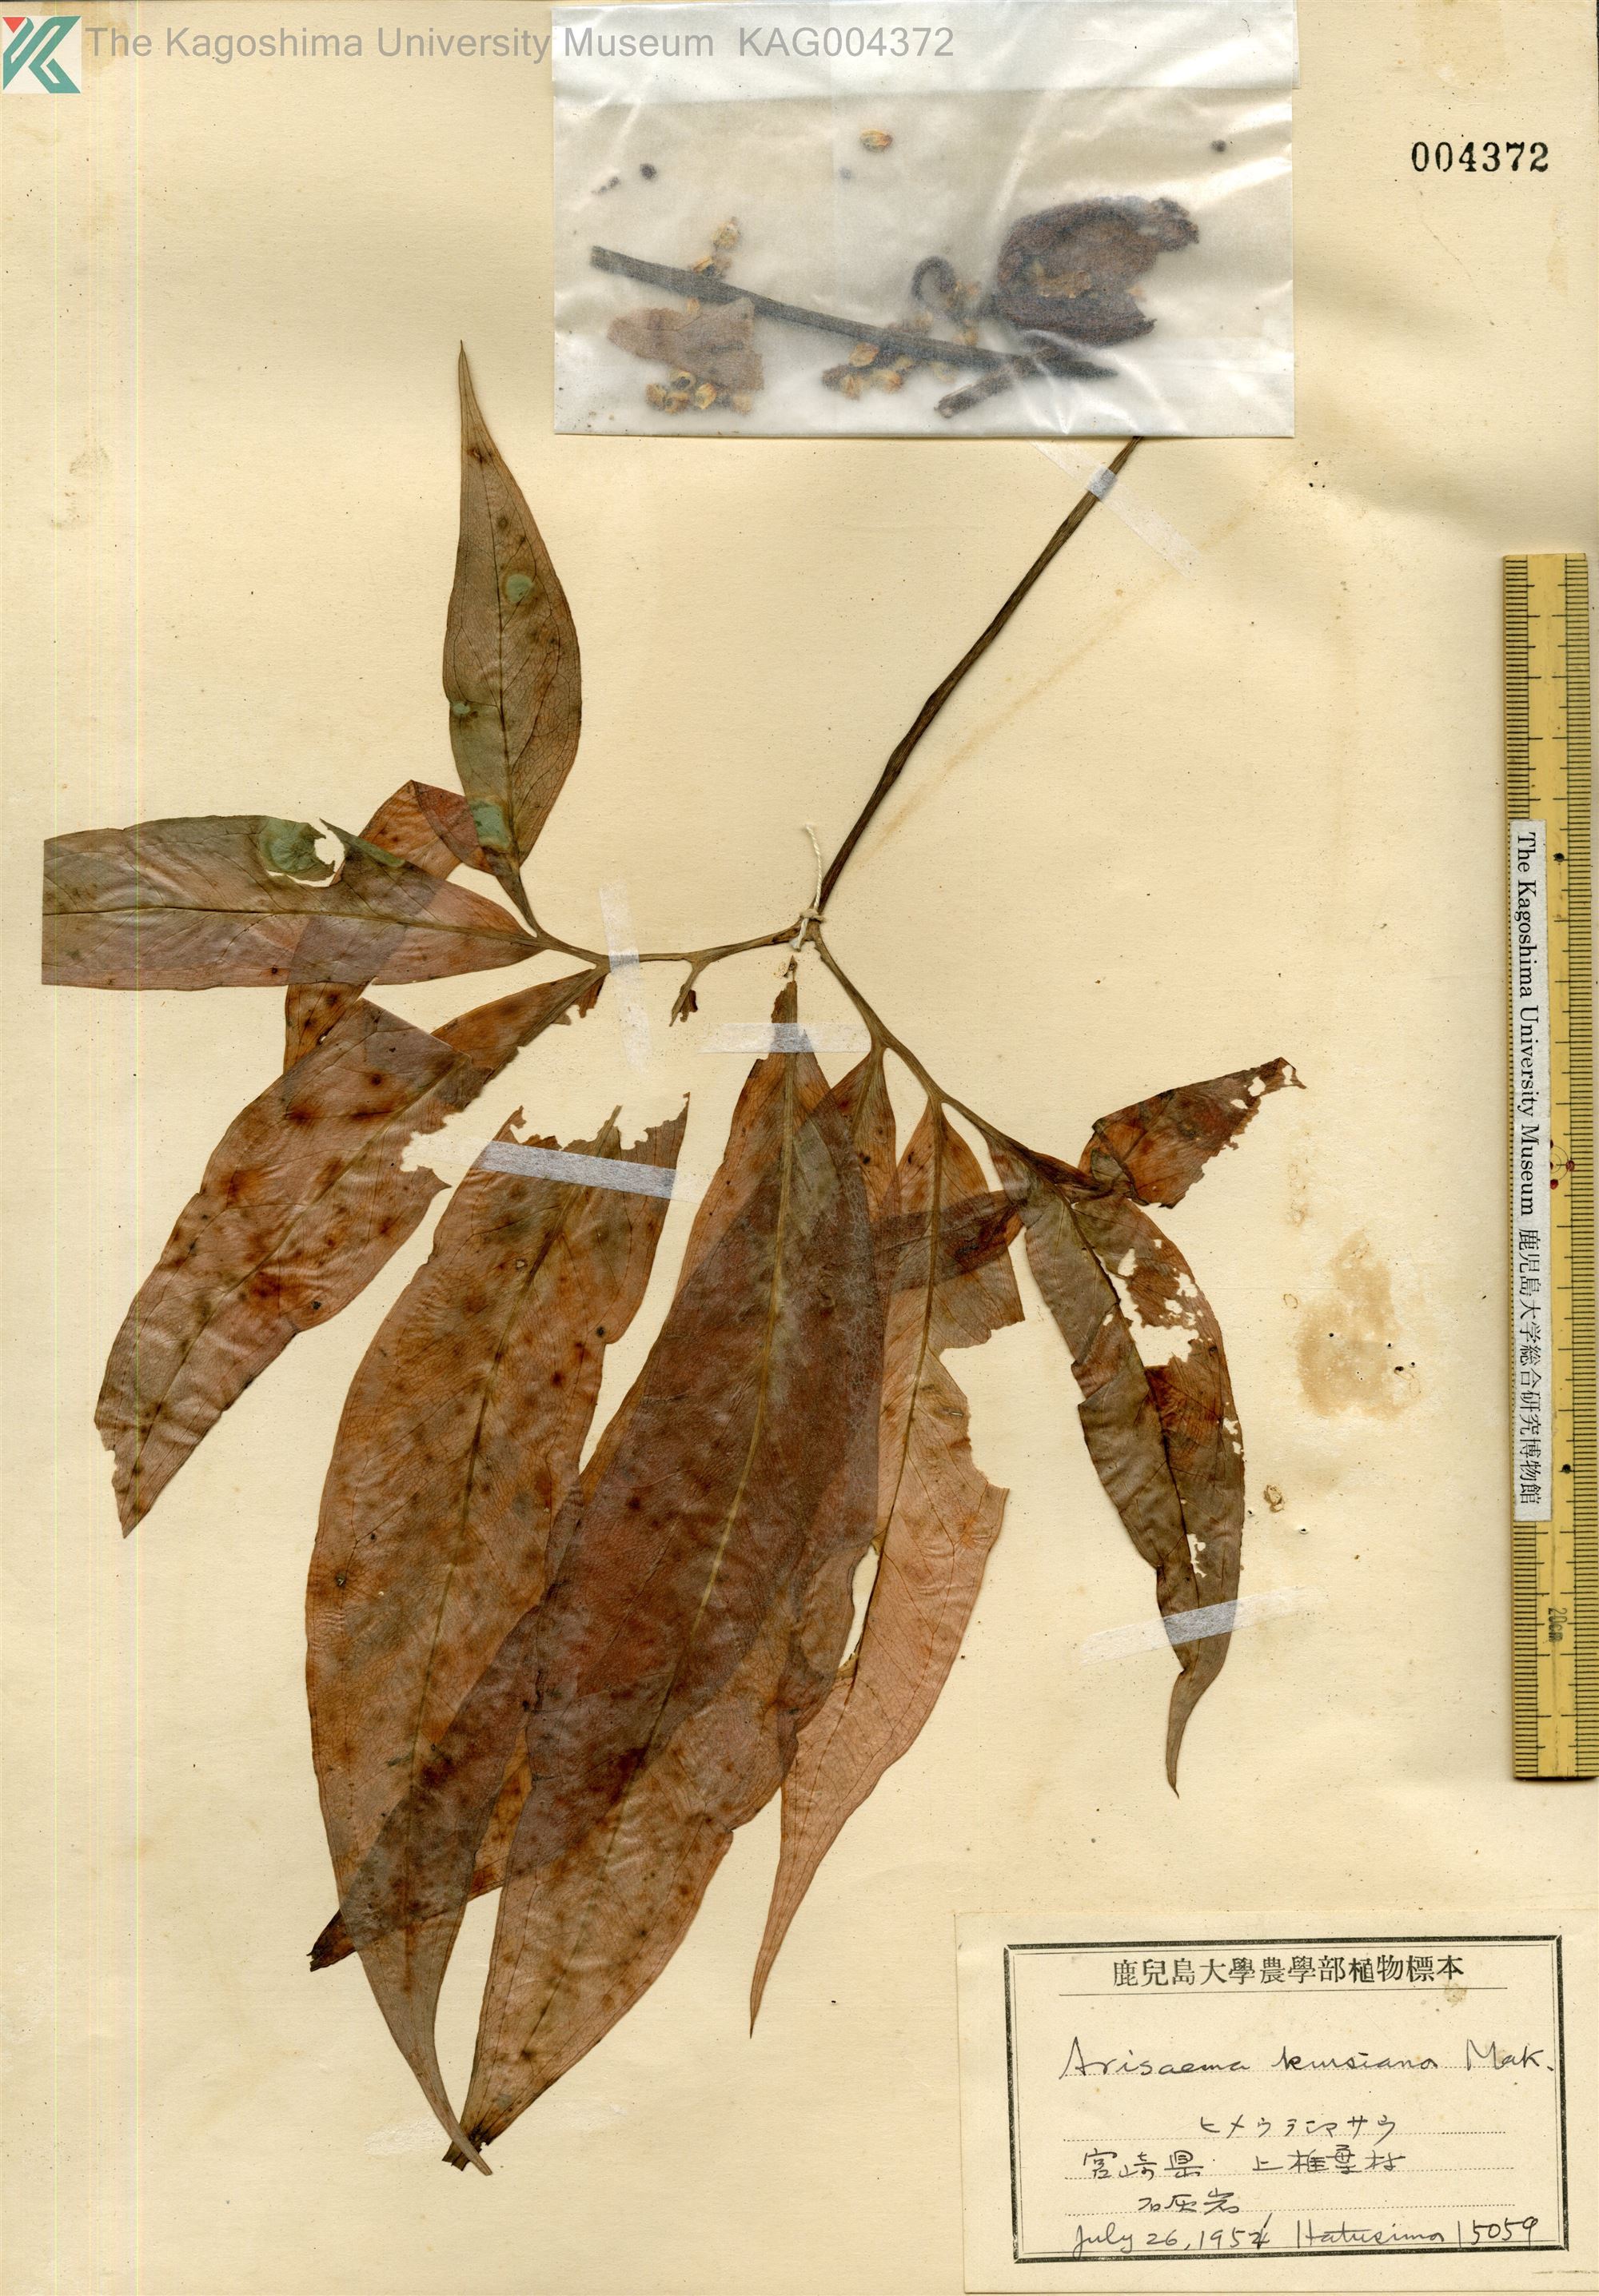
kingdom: Plantae
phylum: Tracheophyta
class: Liliopsida
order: Alismatales
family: Araceae
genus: Arisaema
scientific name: Arisaema kiushianum
